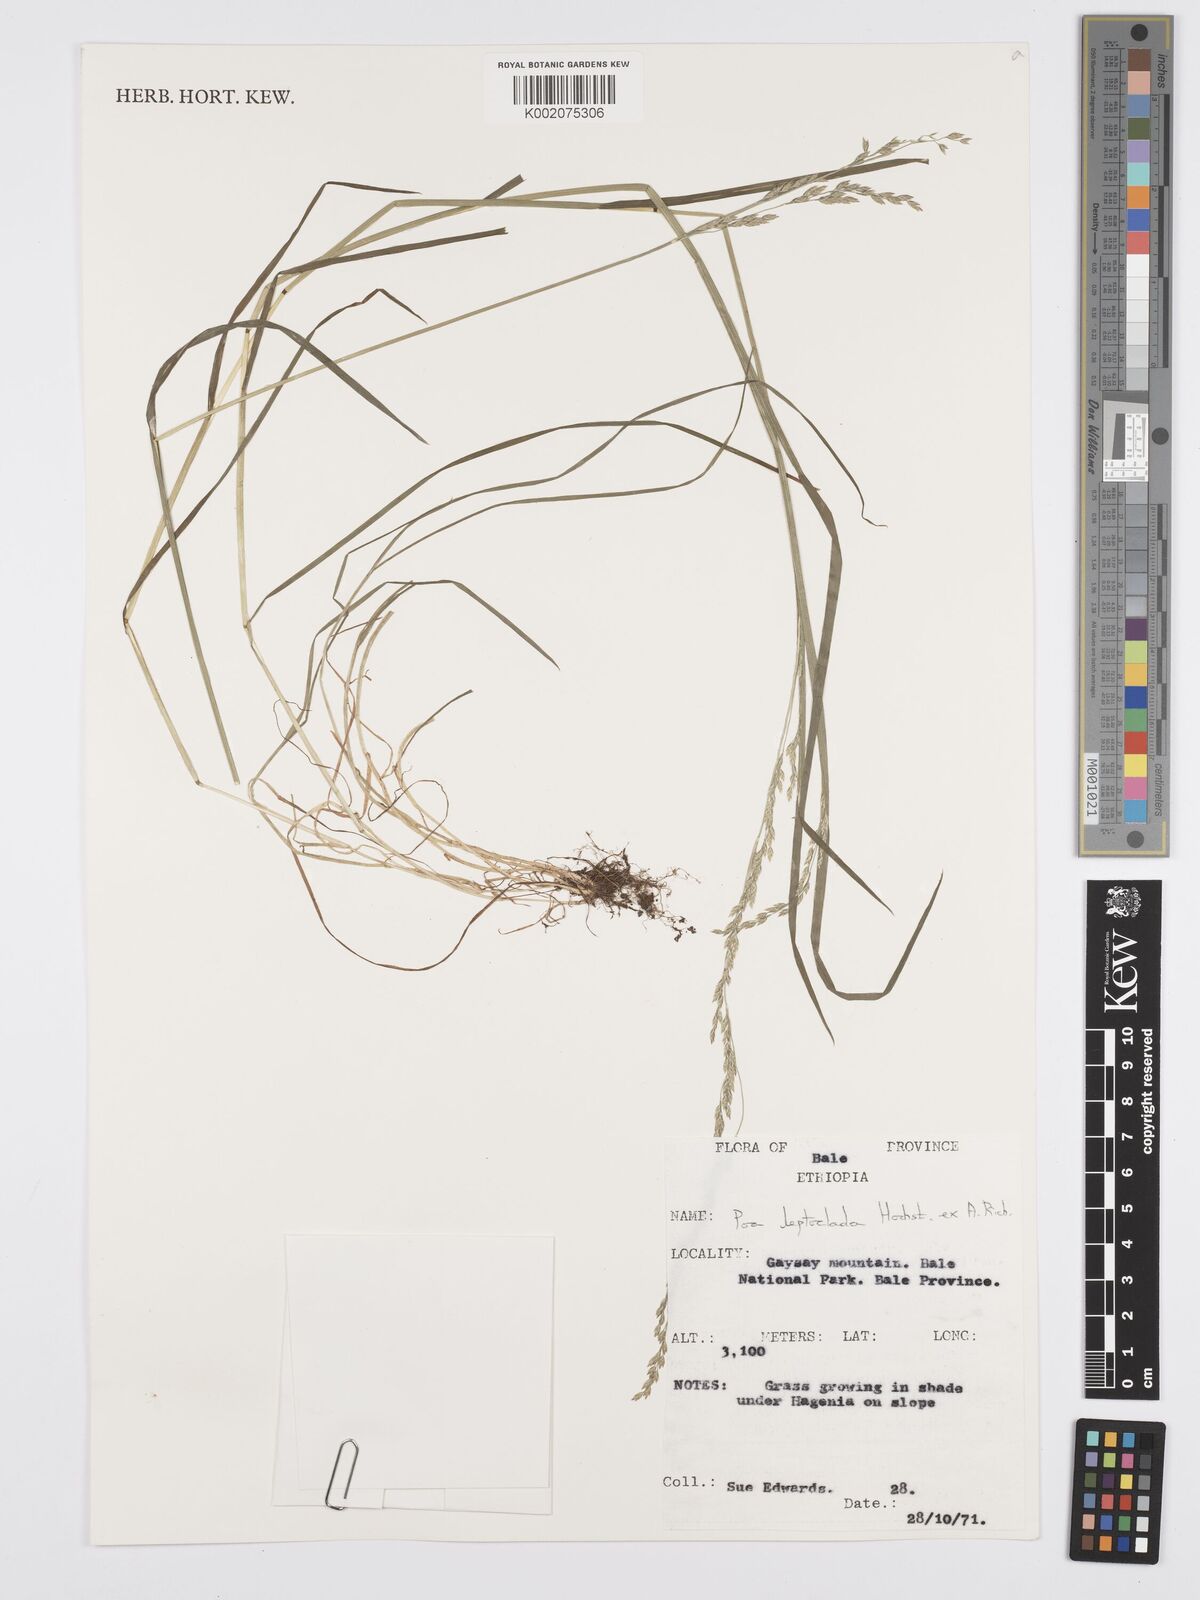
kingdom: Plantae
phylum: Tracheophyta
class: Liliopsida
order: Poales
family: Poaceae
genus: Poa
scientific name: Poa leptoclada
